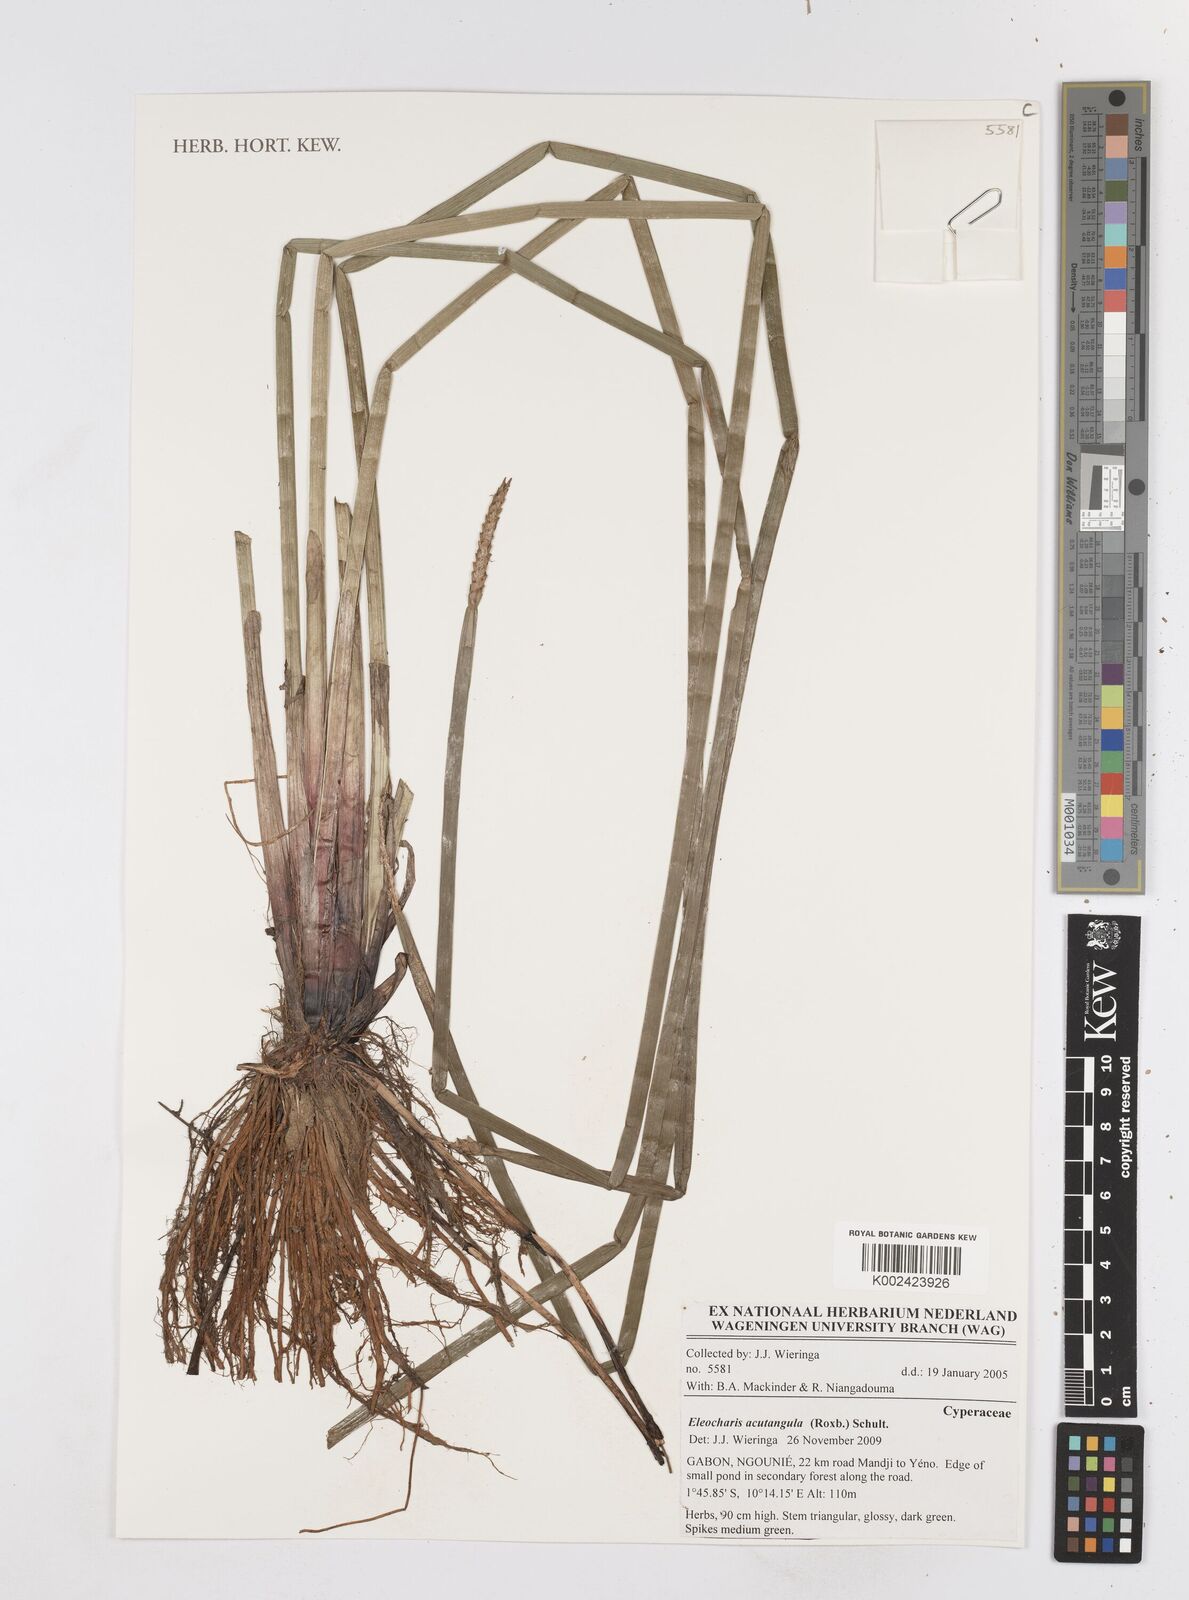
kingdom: Plantae
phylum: Tracheophyta
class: Liliopsida
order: Poales
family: Cyperaceae
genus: Eleocharis
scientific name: Eleocharis acutangula
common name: Acute spikerush
